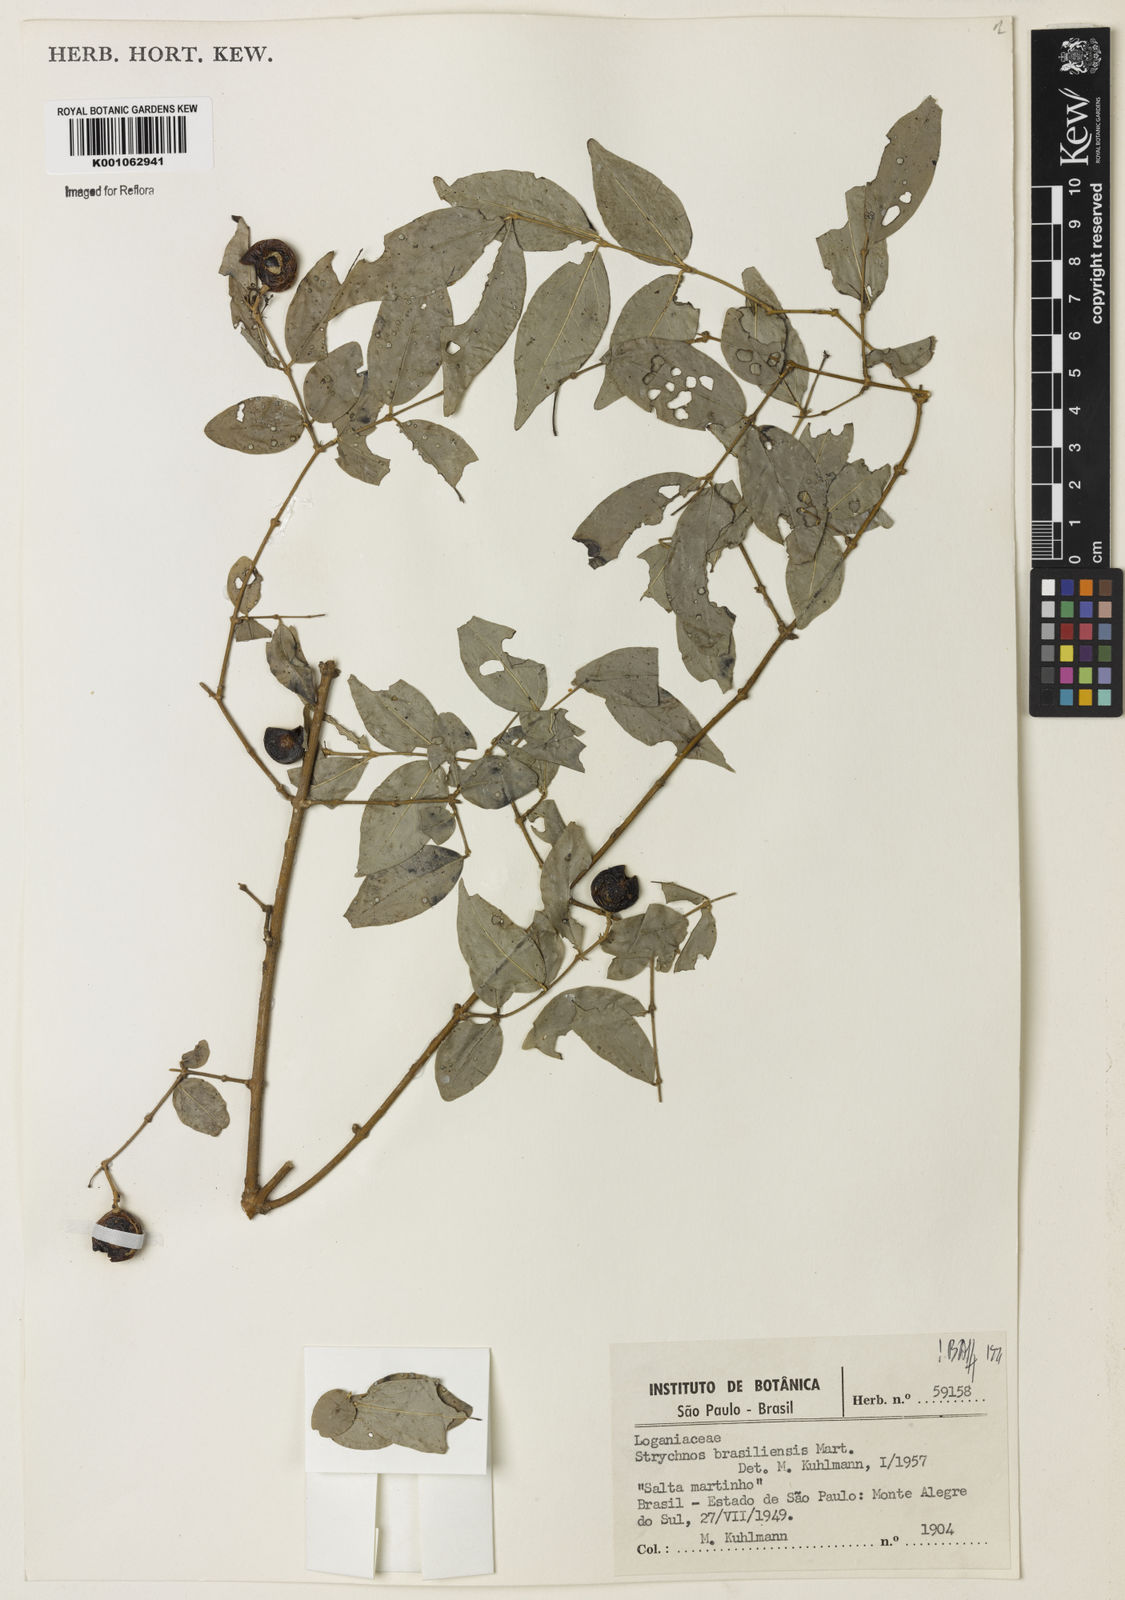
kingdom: Plantae
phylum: Tracheophyta
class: Magnoliopsida
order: Gentianales
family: Loganiaceae
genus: Strychnos
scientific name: Strychnos brasiliensis
